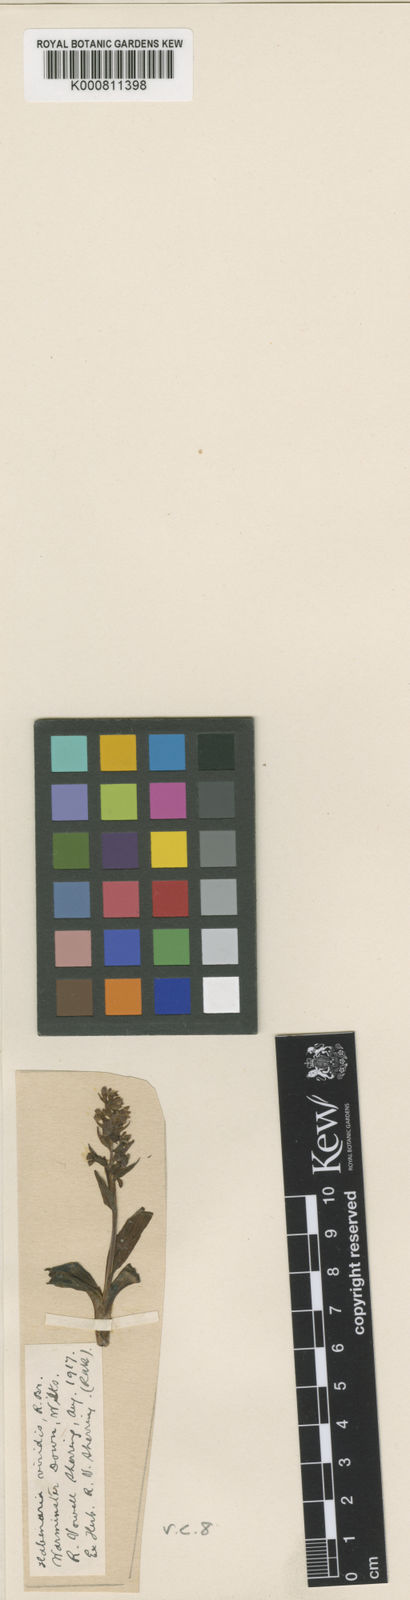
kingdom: Plantae
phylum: Tracheophyta
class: Liliopsida
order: Asparagales
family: Orchidaceae
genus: Dactylorhiza
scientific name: Dactylorhiza viridis
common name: Longbract frog orchid
